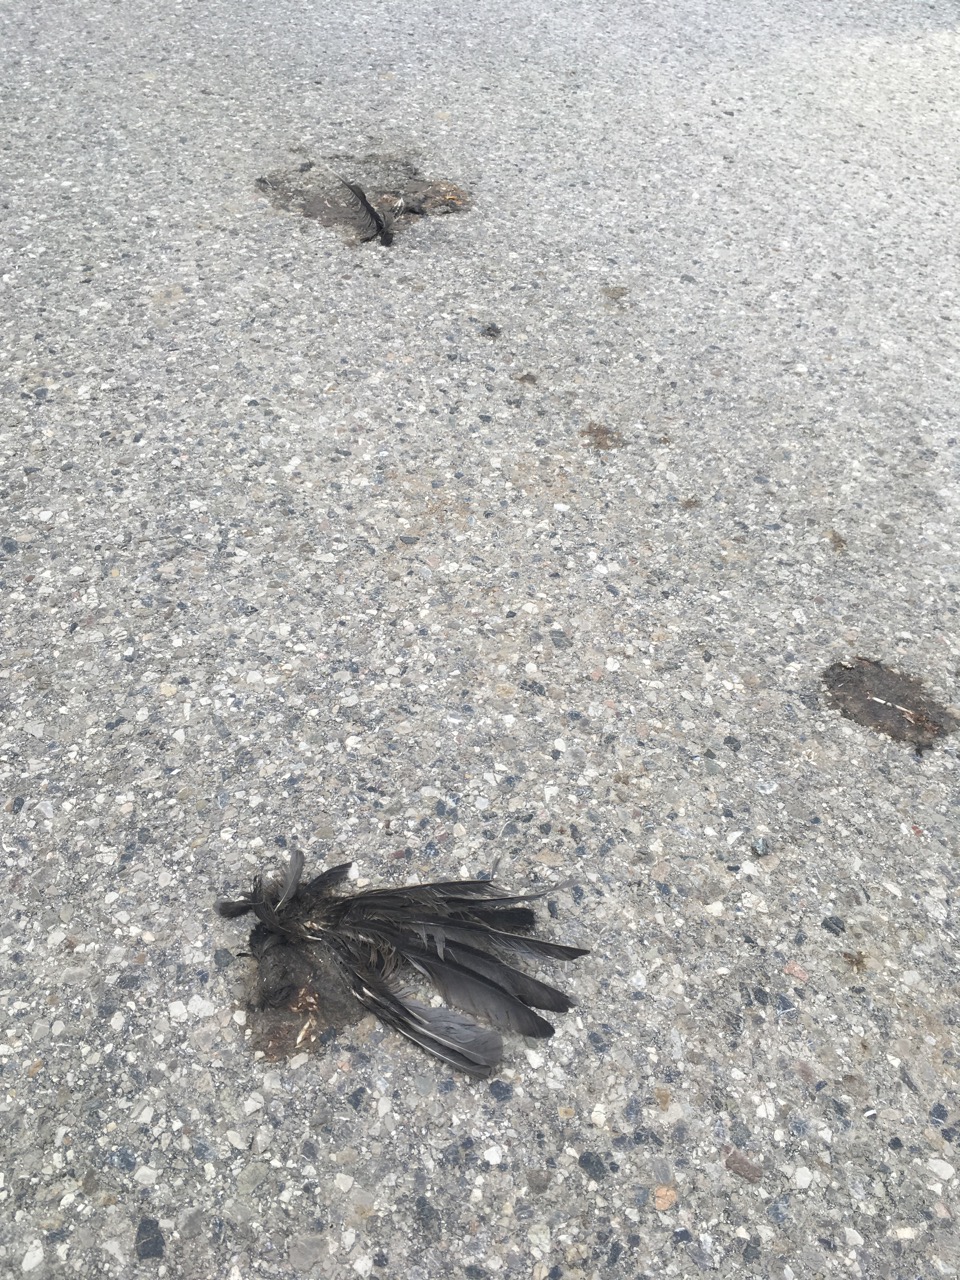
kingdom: Animalia
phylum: Chordata
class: Aves
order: Passeriformes
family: Turdidae
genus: Turdus
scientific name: Turdus merula
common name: Common blackbird
